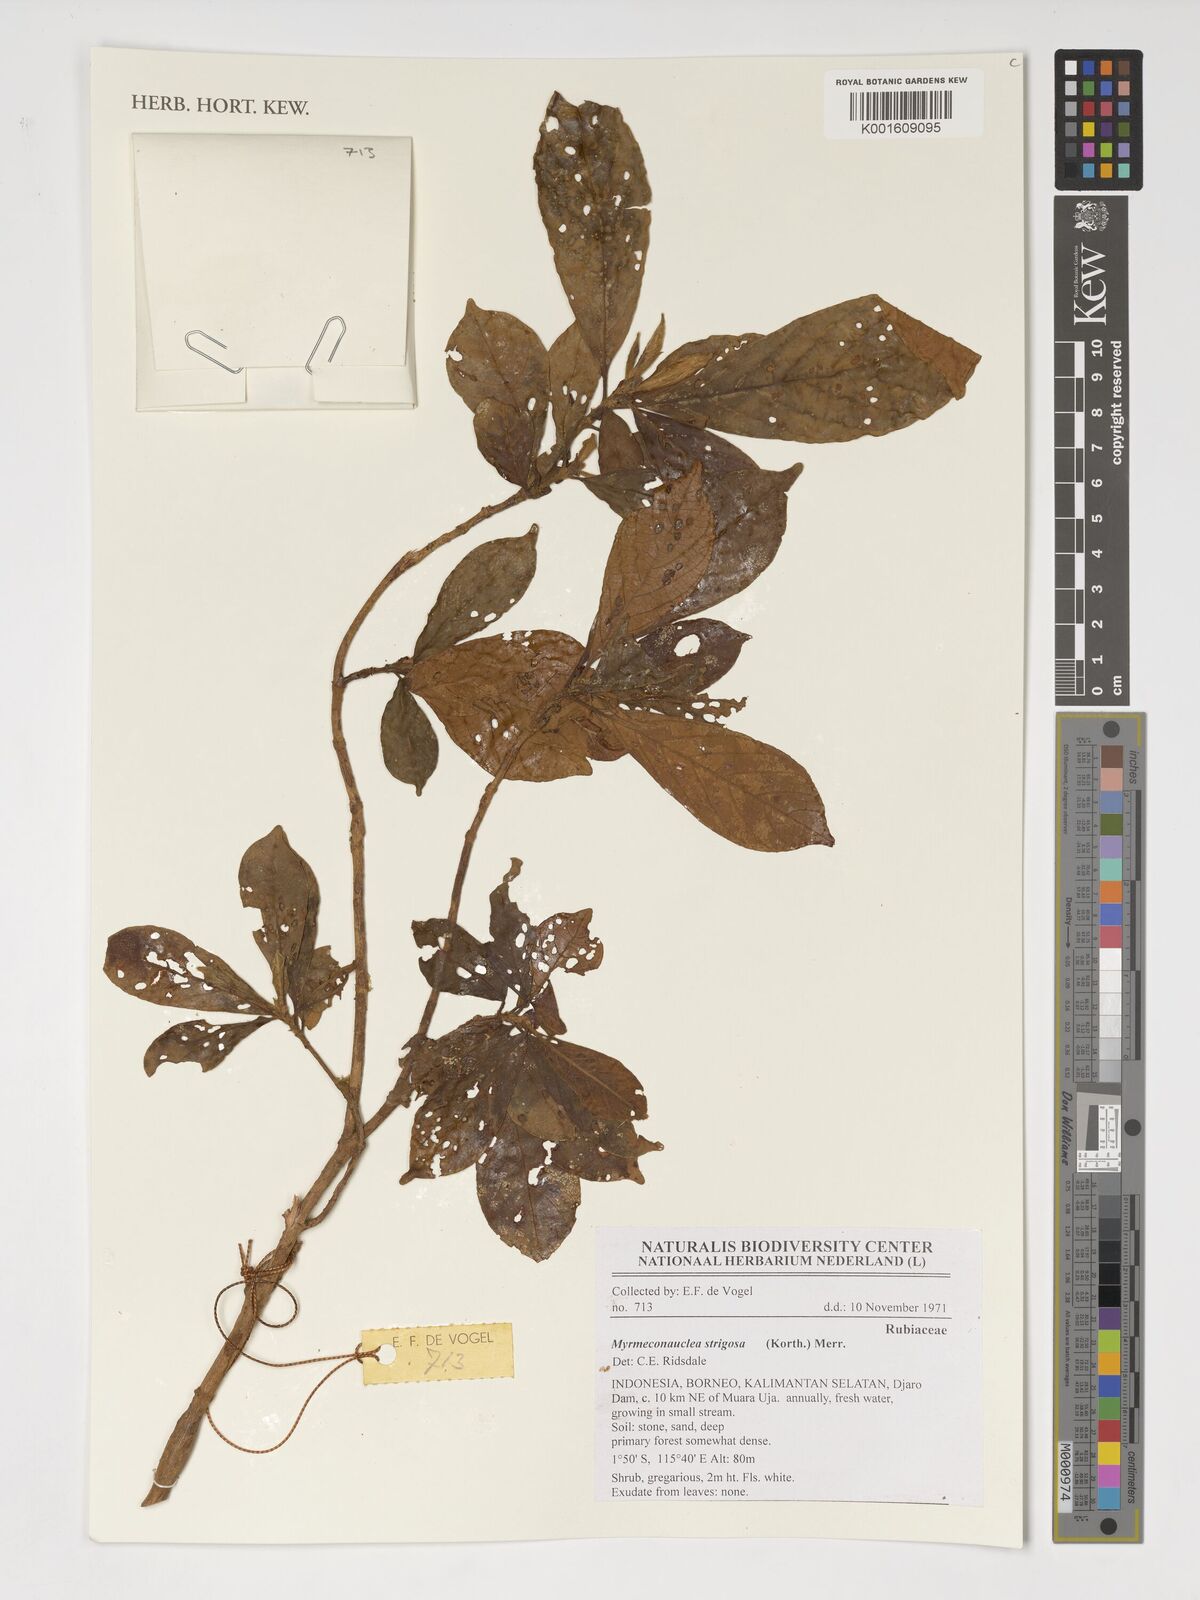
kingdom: Plantae
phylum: Tracheophyta
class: Magnoliopsida
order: Gentianales
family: Rubiaceae
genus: Myrmeconauclea
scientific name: Myrmeconauclea strigosa
